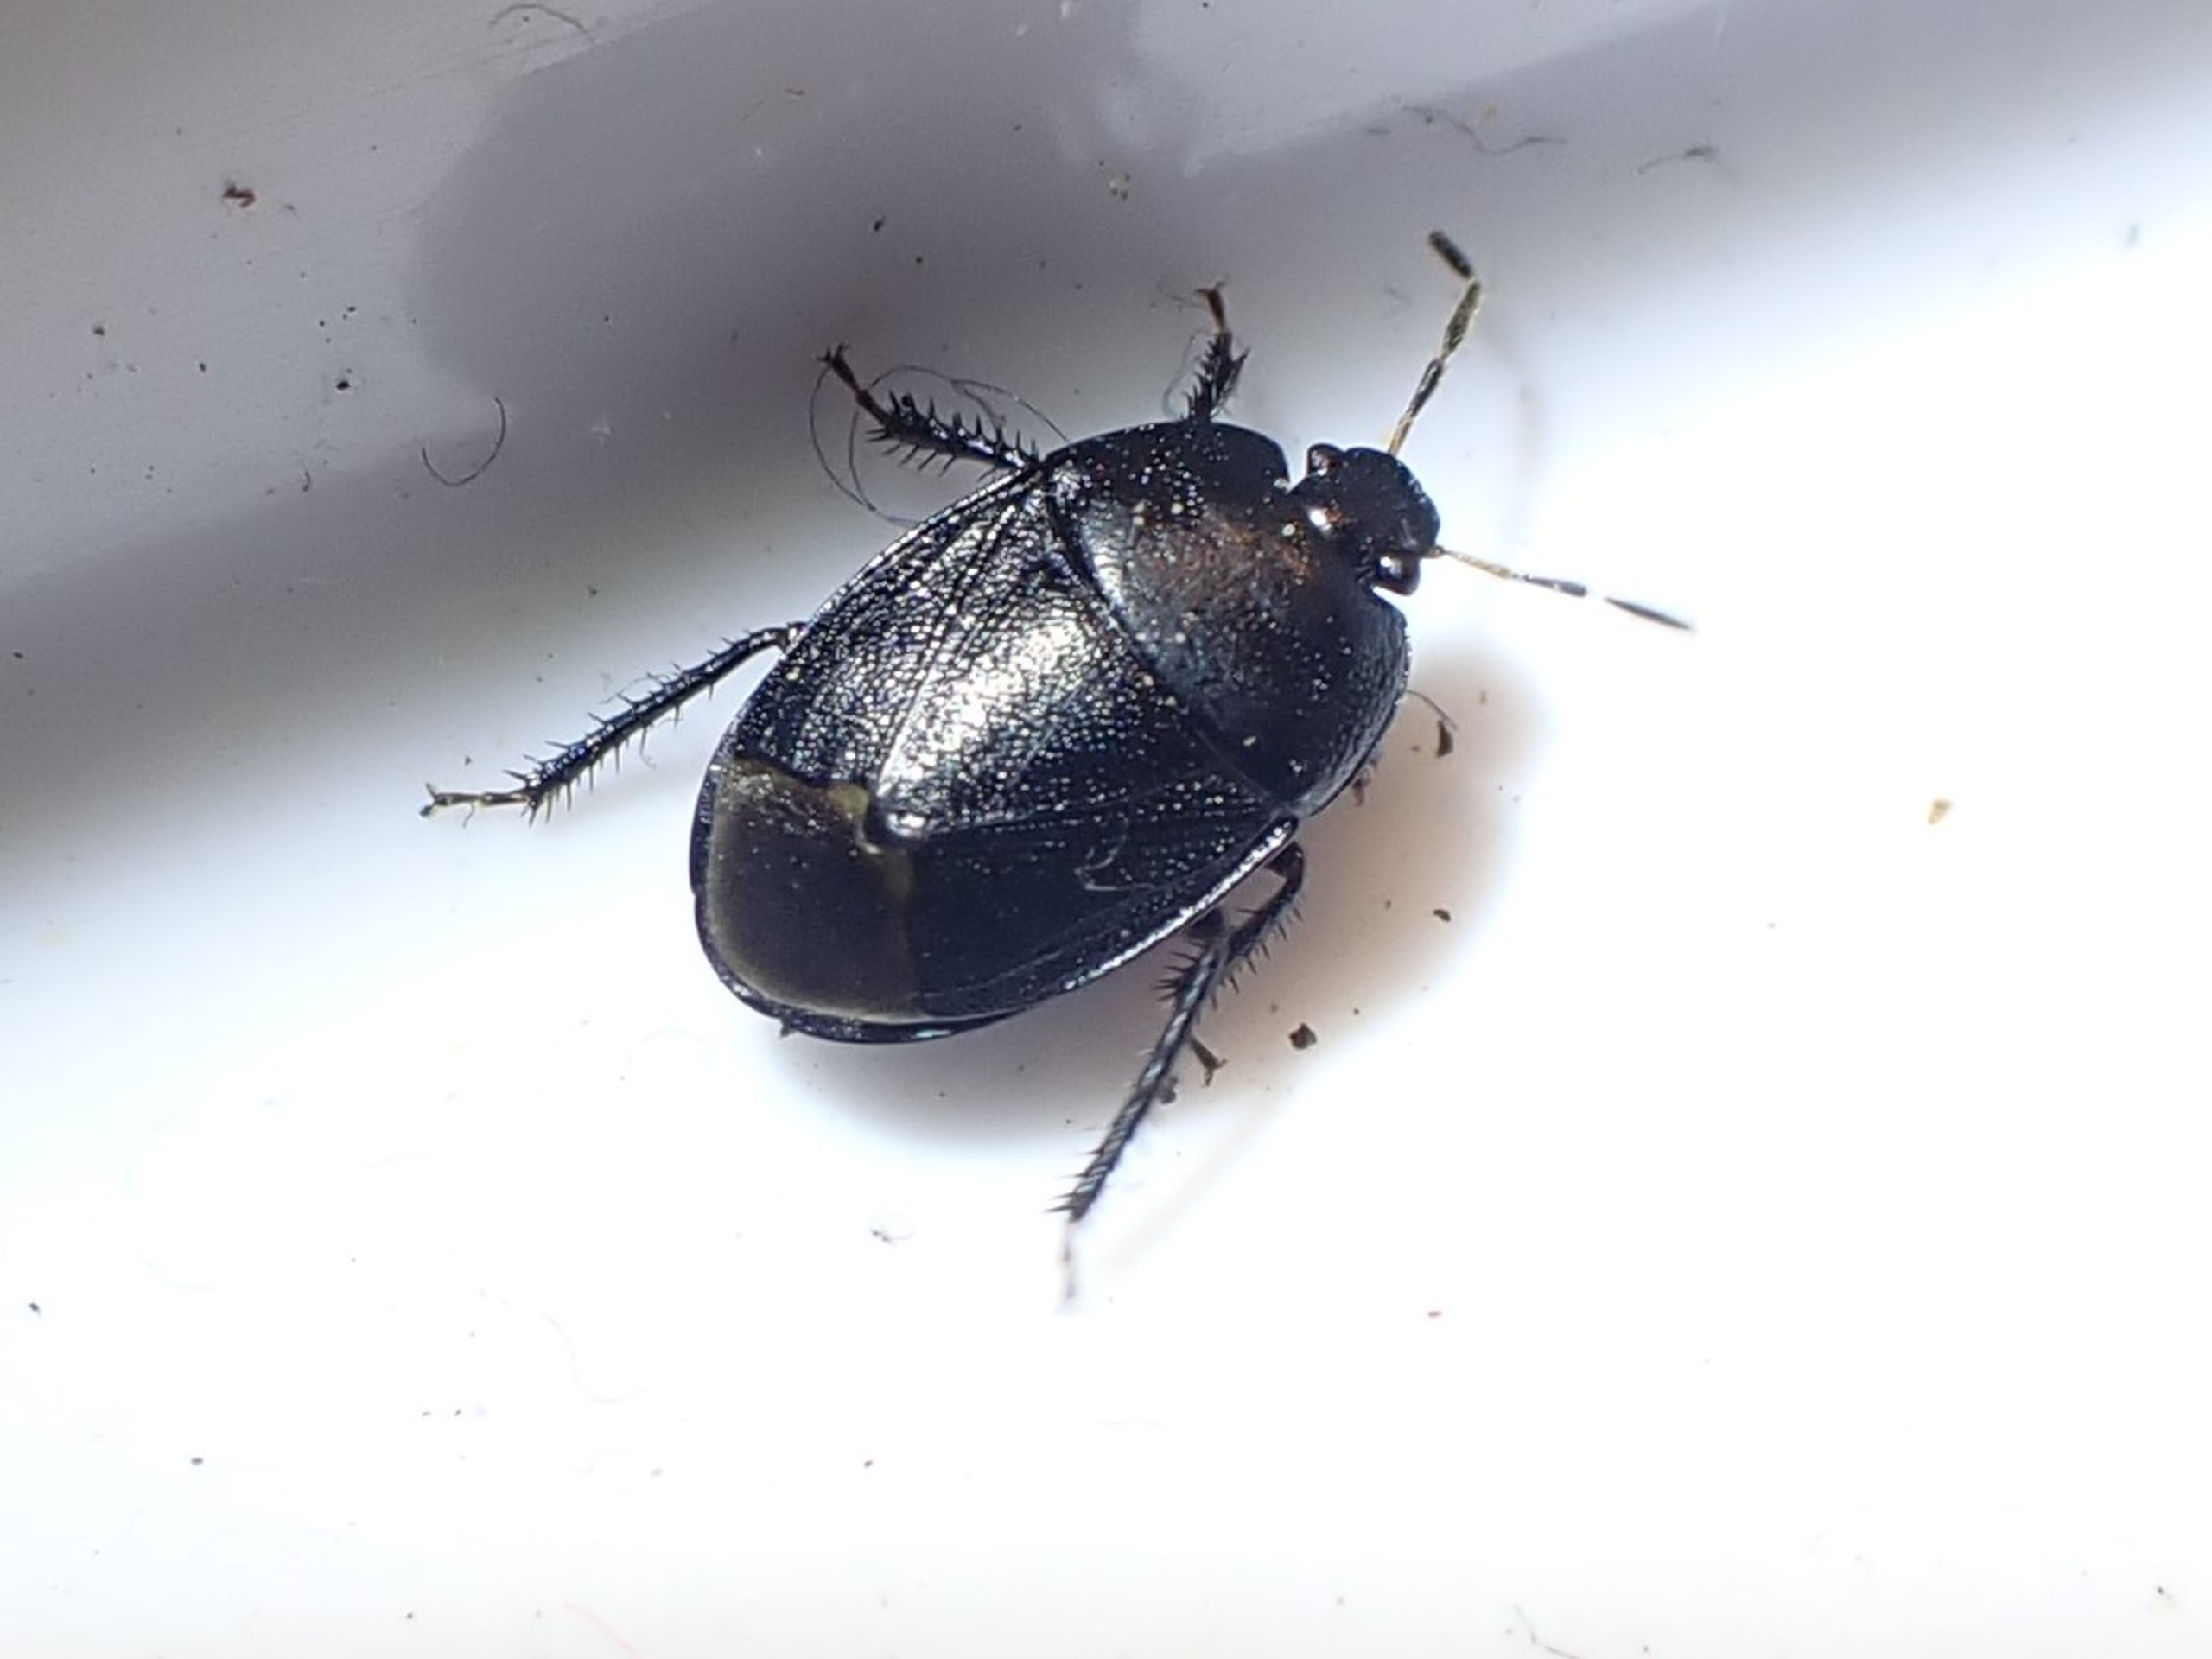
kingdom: Animalia
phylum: Arthropoda
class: Insecta
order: Hemiptera
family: Cydnidae
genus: Sehirus
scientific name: Sehirus luctuosus
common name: Mørk tornben
